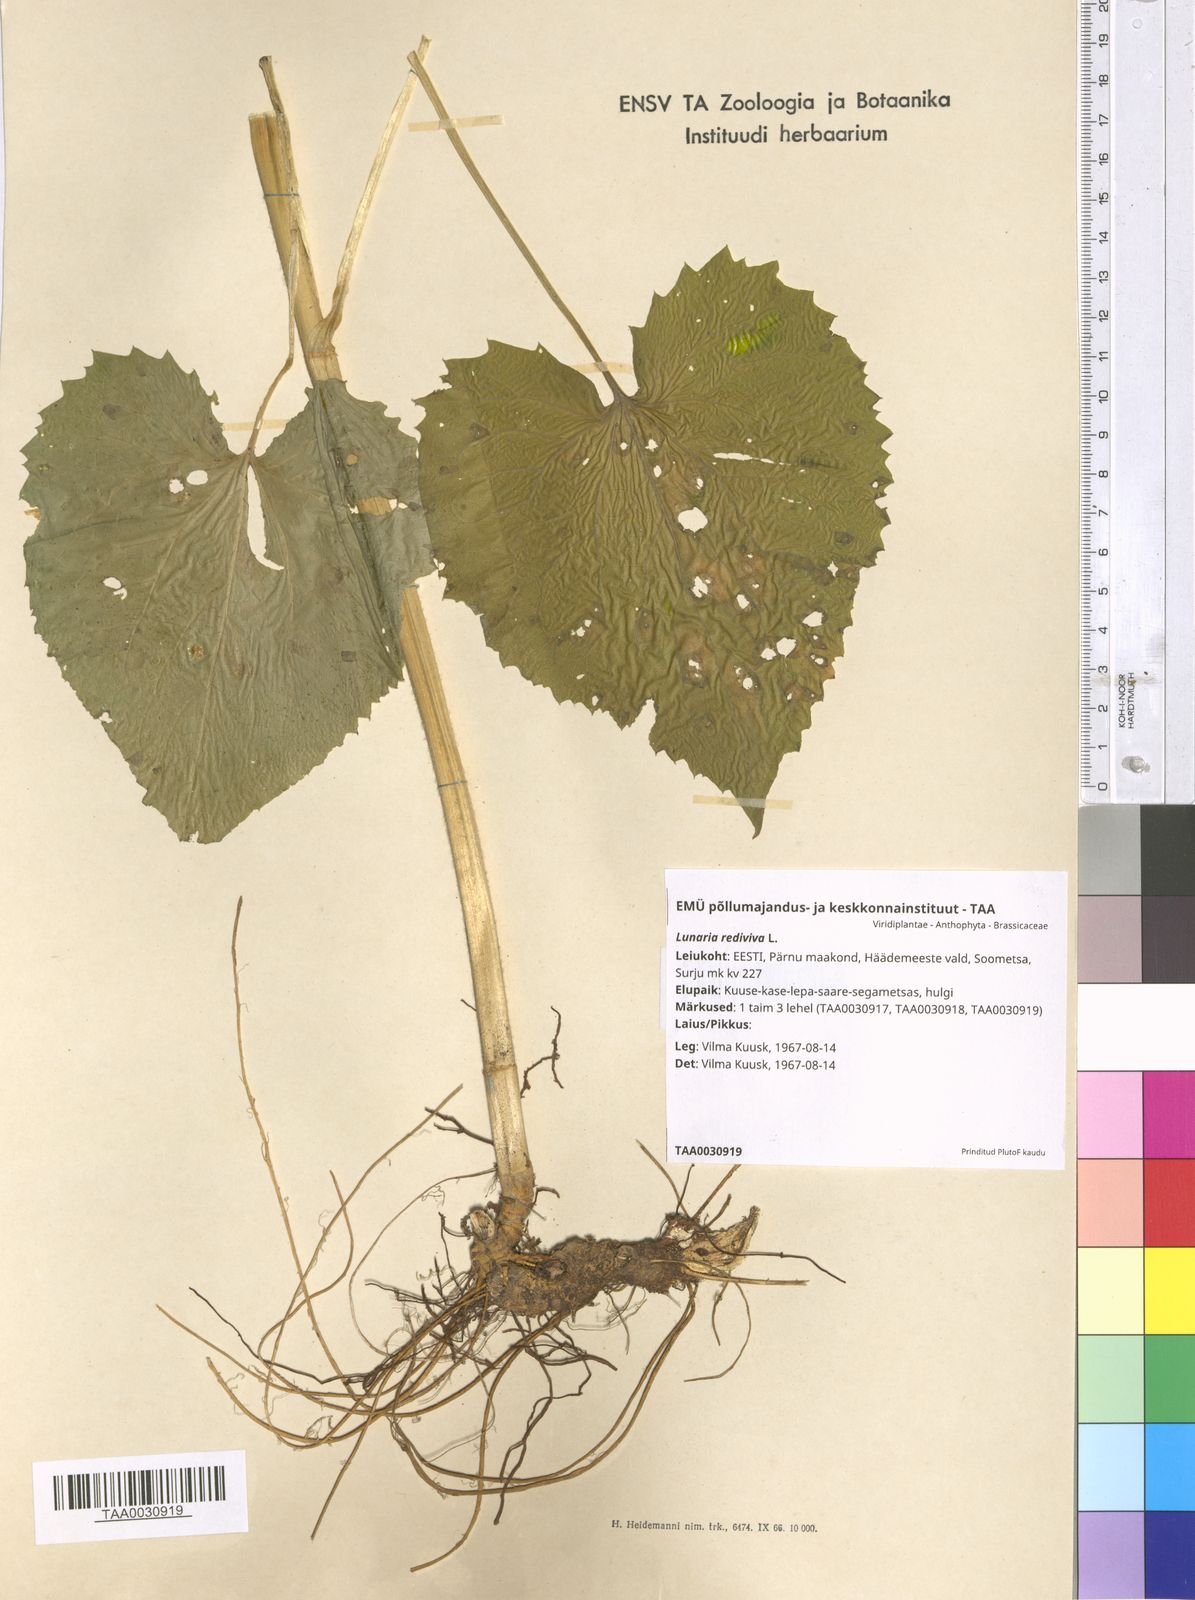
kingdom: Plantae
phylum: Tracheophyta
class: Magnoliopsida
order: Brassicales
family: Brassicaceae
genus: Lunaria
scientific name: Lunaria rediviva
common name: Perennial honesty
